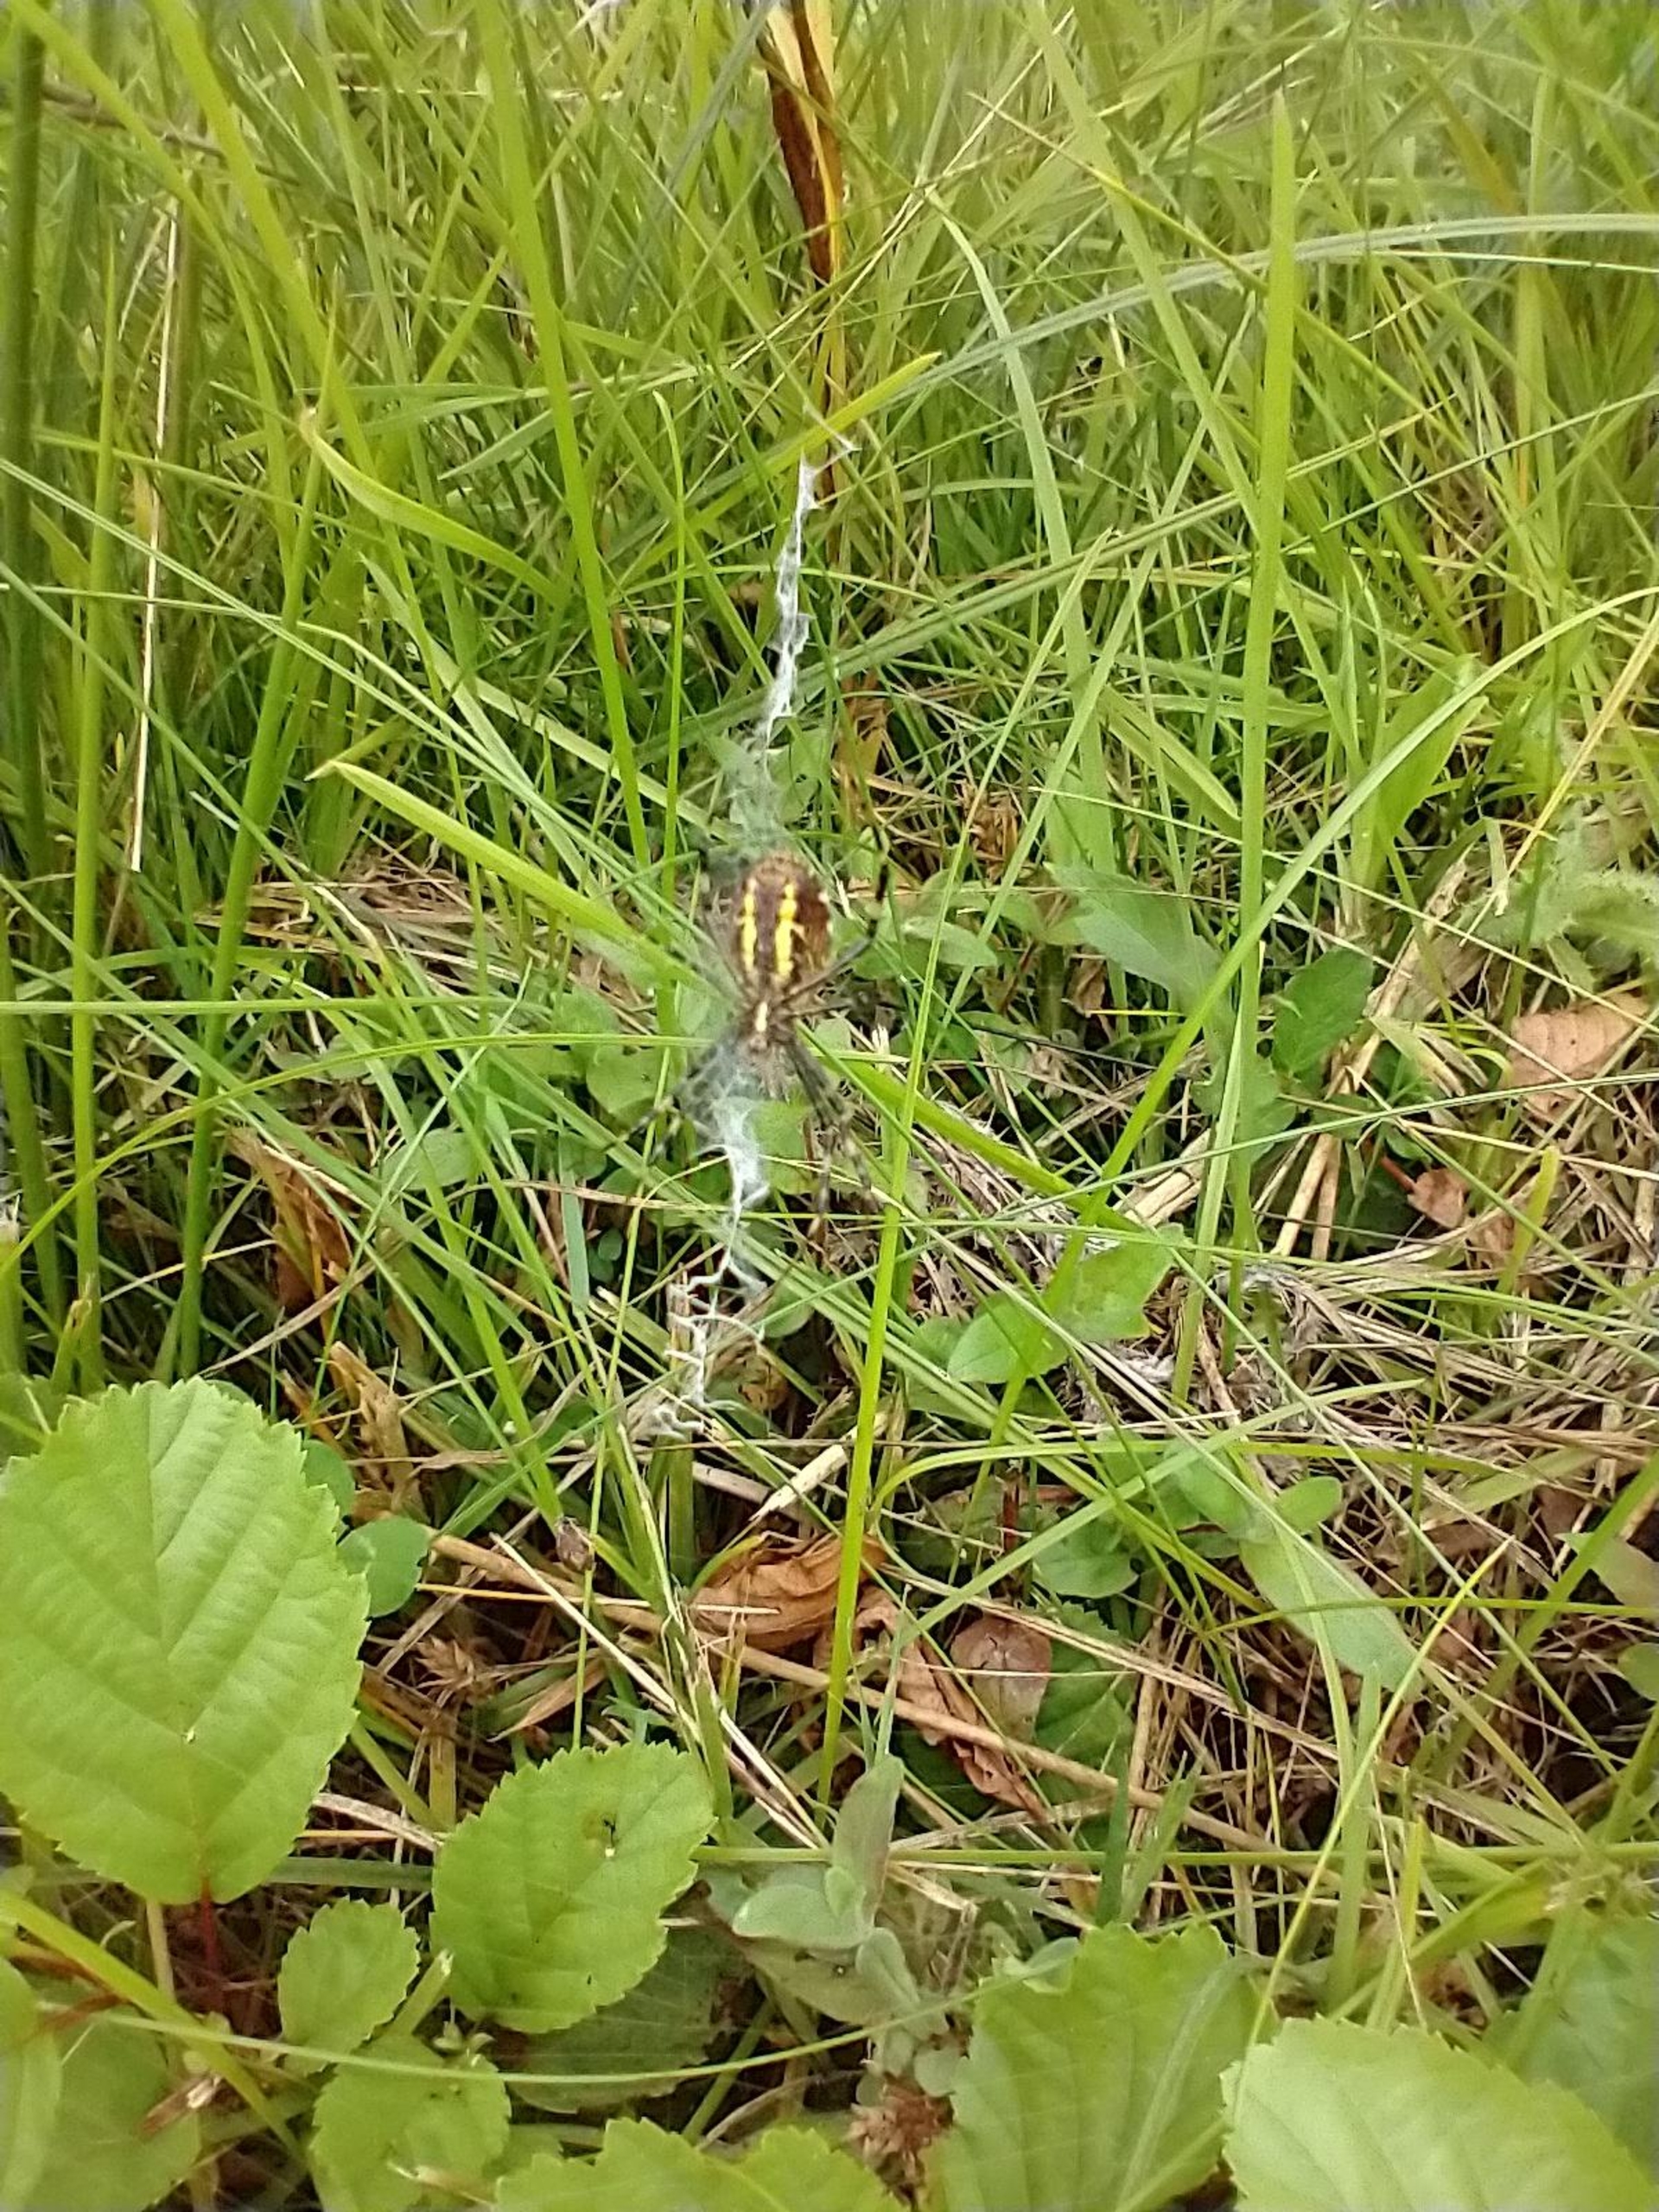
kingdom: Animalia
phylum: Arthropoda
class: Arachnida
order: Araneae
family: Araneidae
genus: Argiope
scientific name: Argiope bruennichi
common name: Hvepseedderkop
